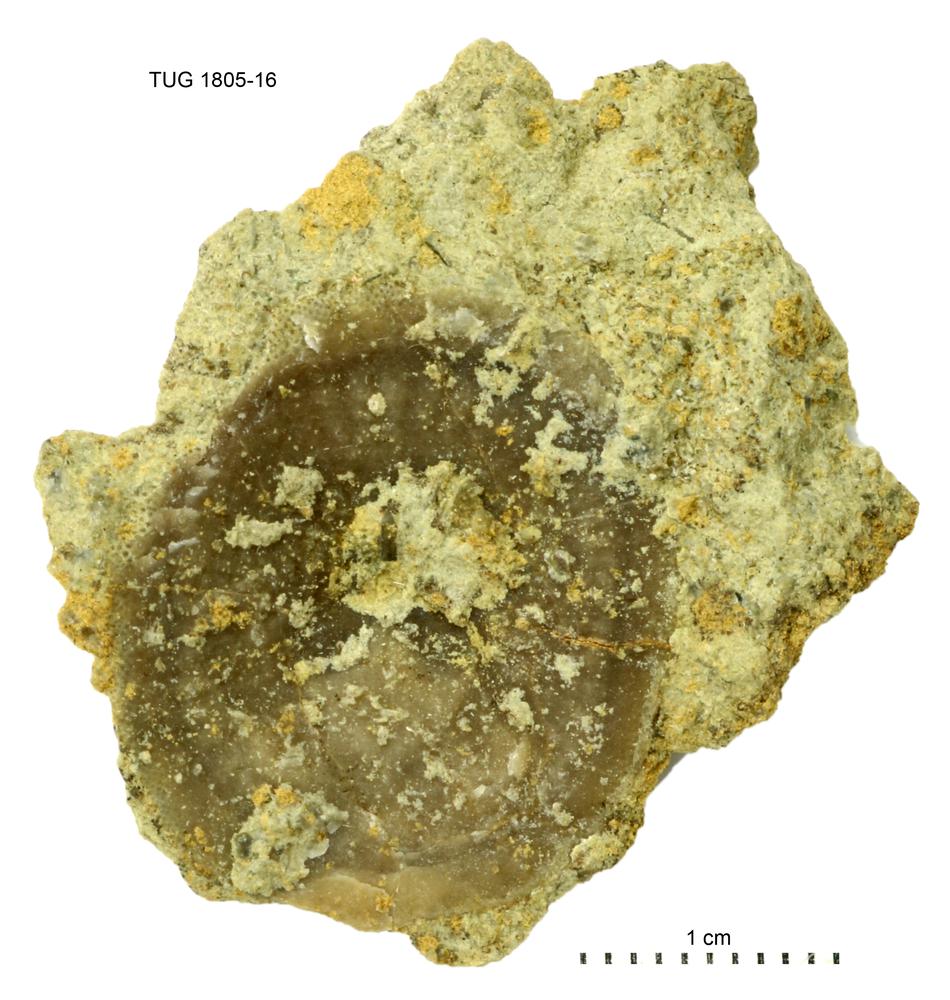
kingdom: Animalia
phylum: Mollusca
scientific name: Mollusca
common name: Mollusca
